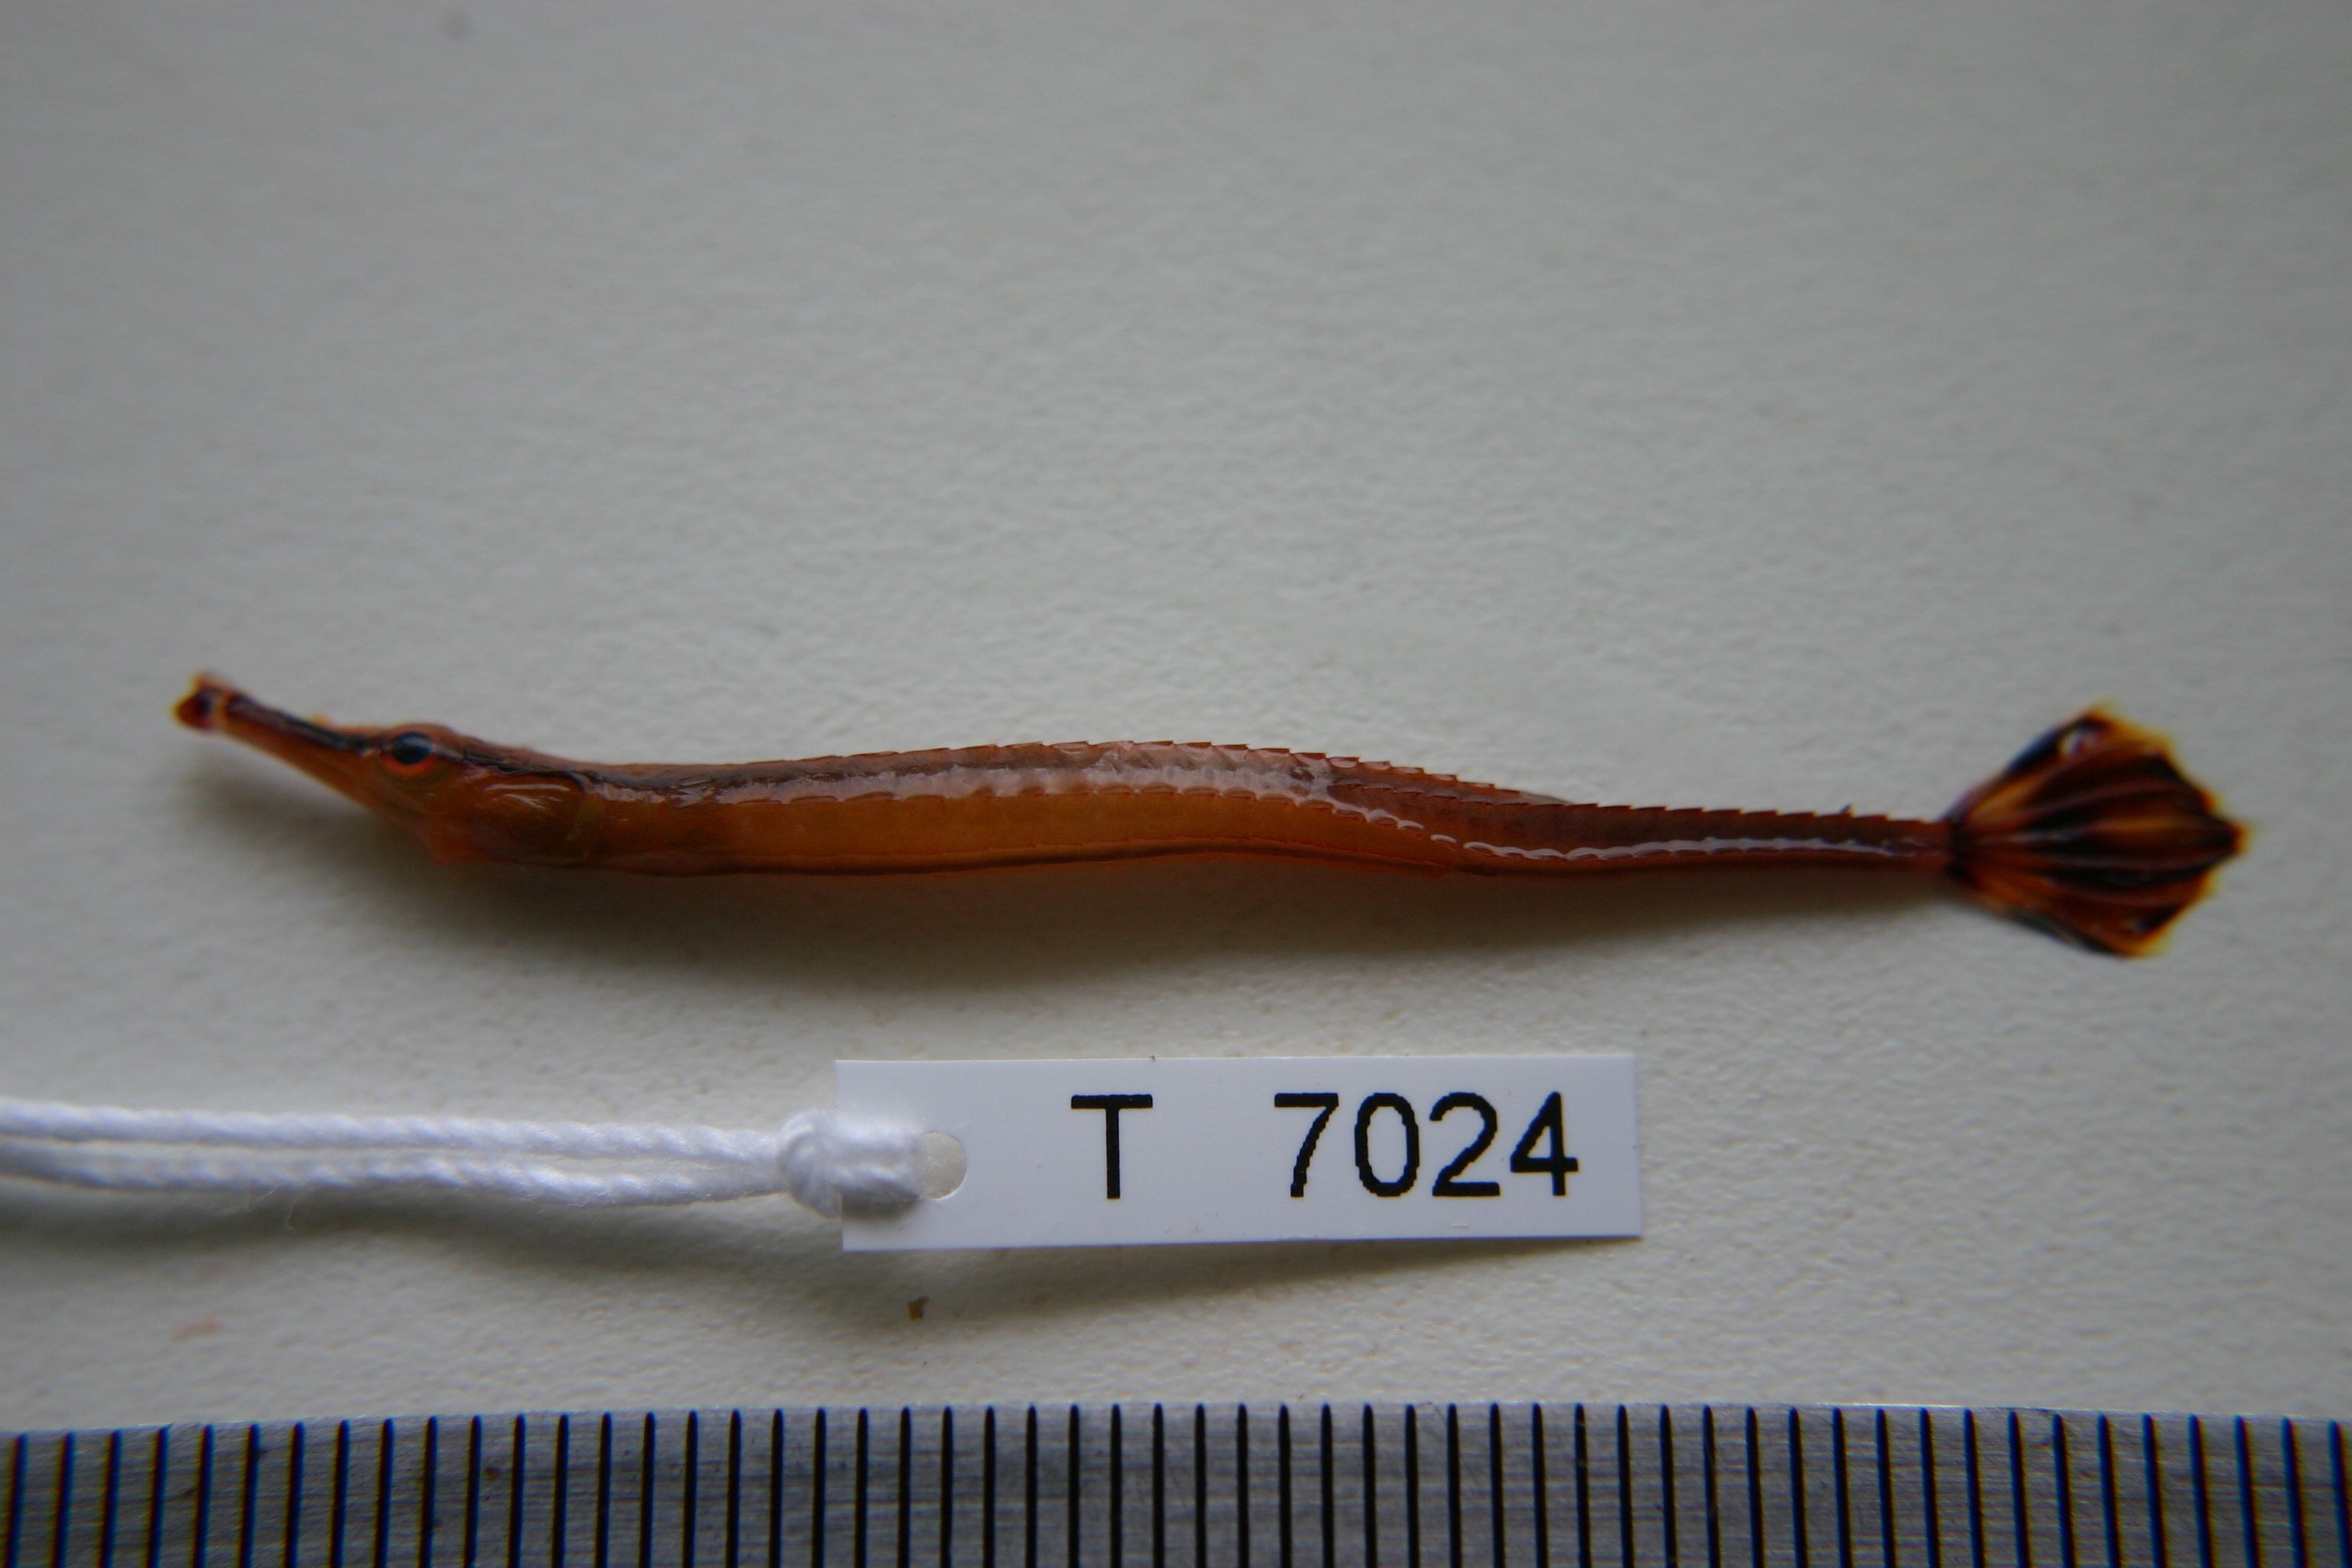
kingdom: Animalia
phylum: Chordata
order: Syngnathiformes
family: Syngnathidae
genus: Doryrhamphus
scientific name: Doryrhamphus excisus
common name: Bluestripe pipefish
